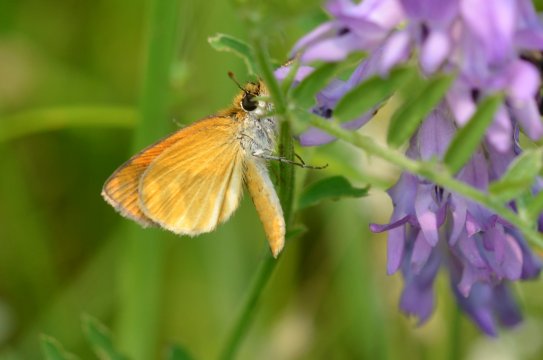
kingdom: Animalia
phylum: Arthropoda
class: Insecta
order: Lepidoptera
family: Hesperiidae
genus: Ancyloxypha
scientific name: Ancyloxypha numitor
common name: Least Skipper
